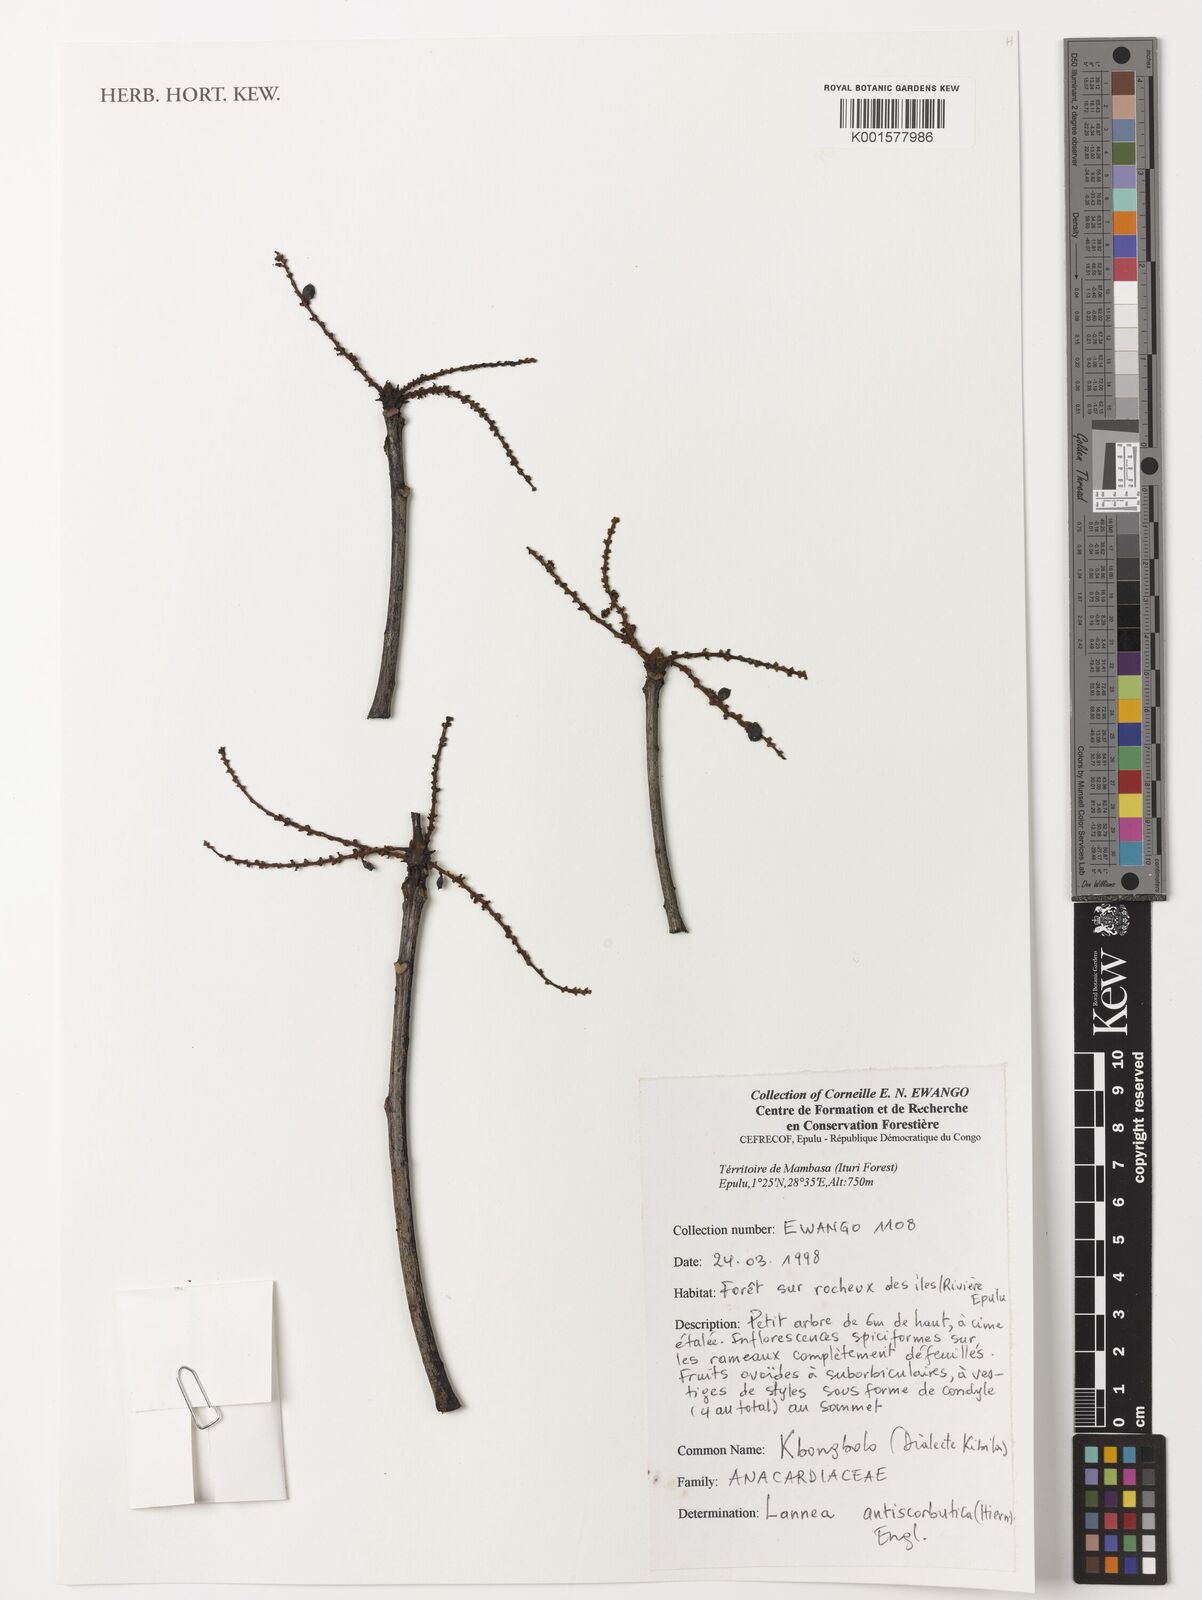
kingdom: Plantae
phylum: Tracheophyta
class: Magnoliopsida
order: Sapindales
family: Anacardiaceae
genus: Lannea
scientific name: Lannea antiscorbutica
